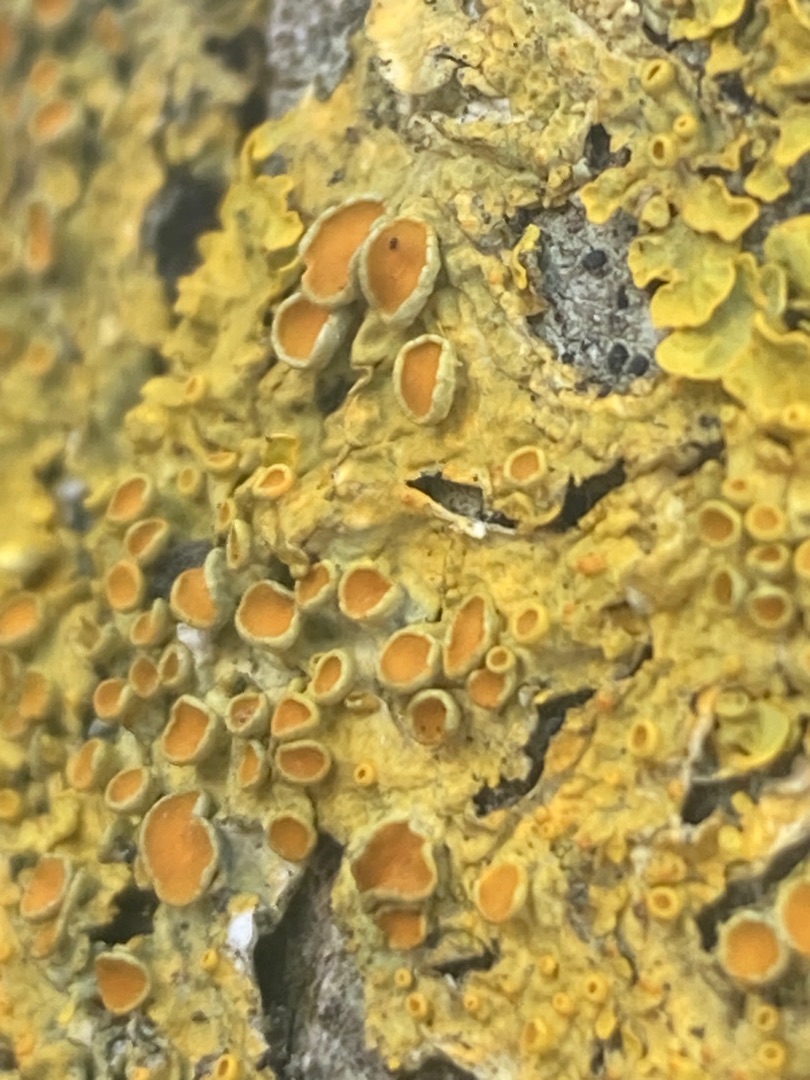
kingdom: Fungi
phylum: Ascomycota
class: Lecanoromycetes
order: Teloschistales
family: Teloschistaceae
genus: Xanthoria
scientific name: Xanthoria parietina
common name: Almindelig væggelav
